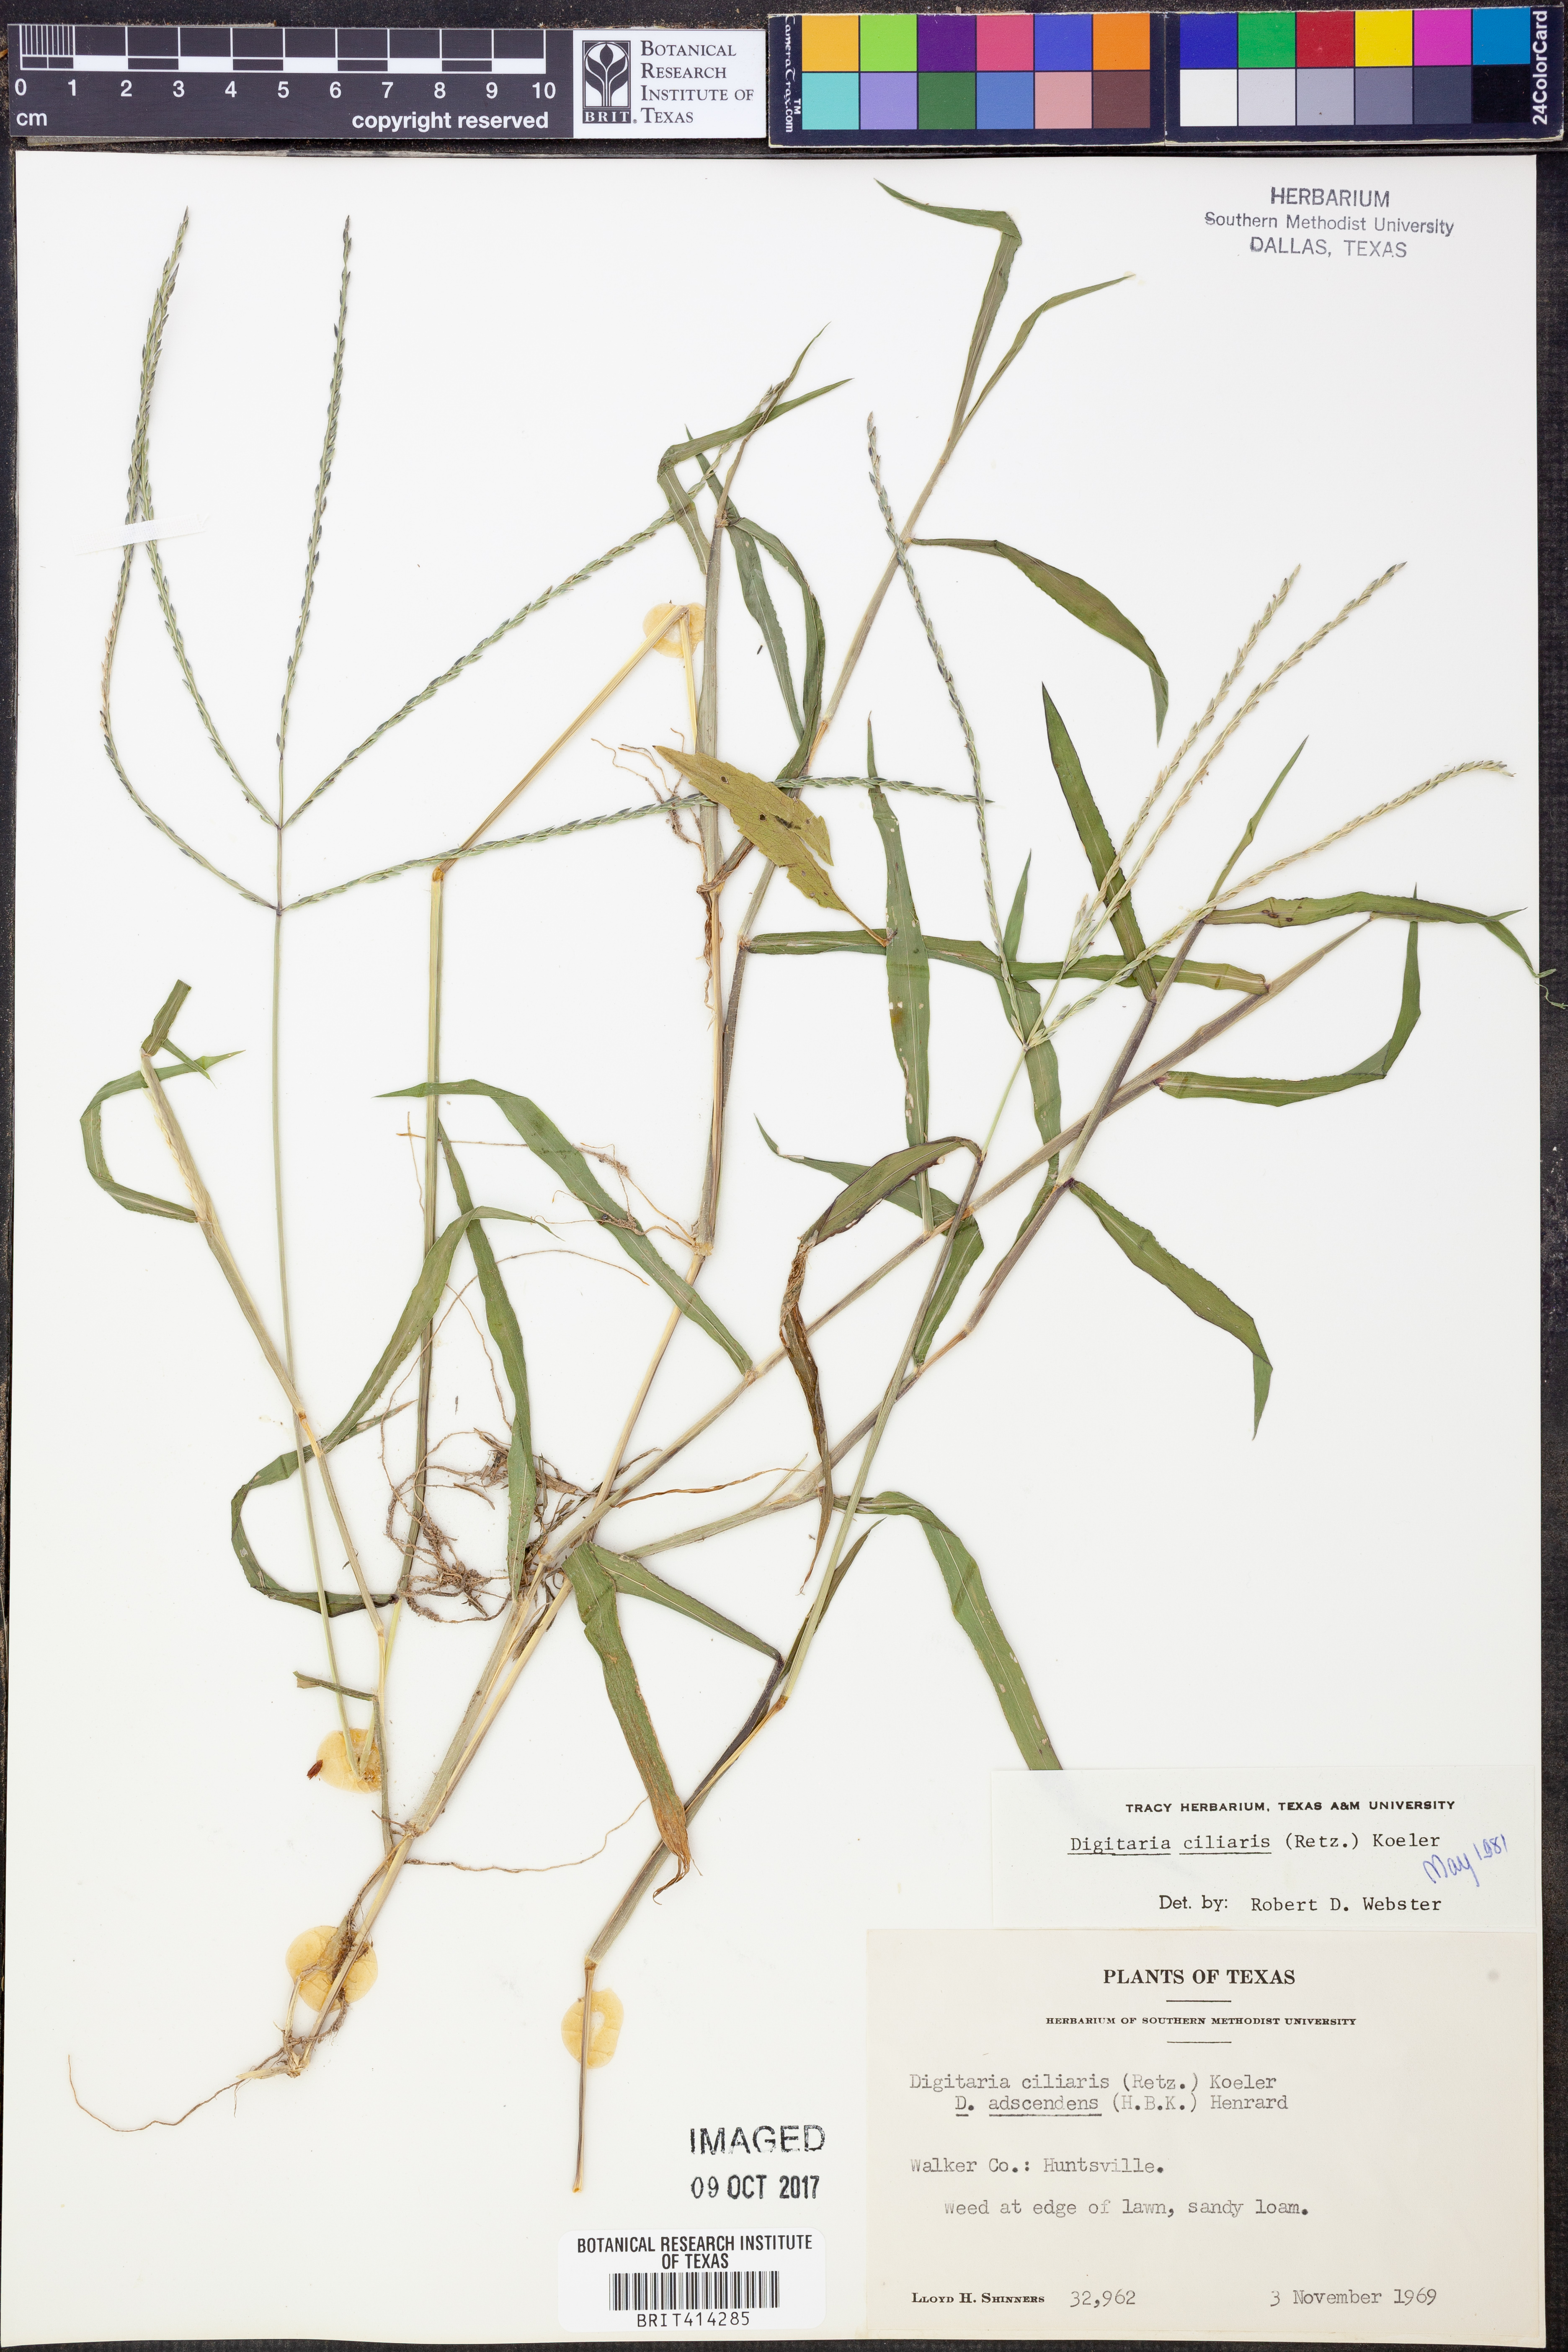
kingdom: Plantae
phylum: Tracheophyta
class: Liliopsida
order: Poales
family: Poaceae
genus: Digitaria
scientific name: Digitaria ciliaris
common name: Tropical finger-grass
